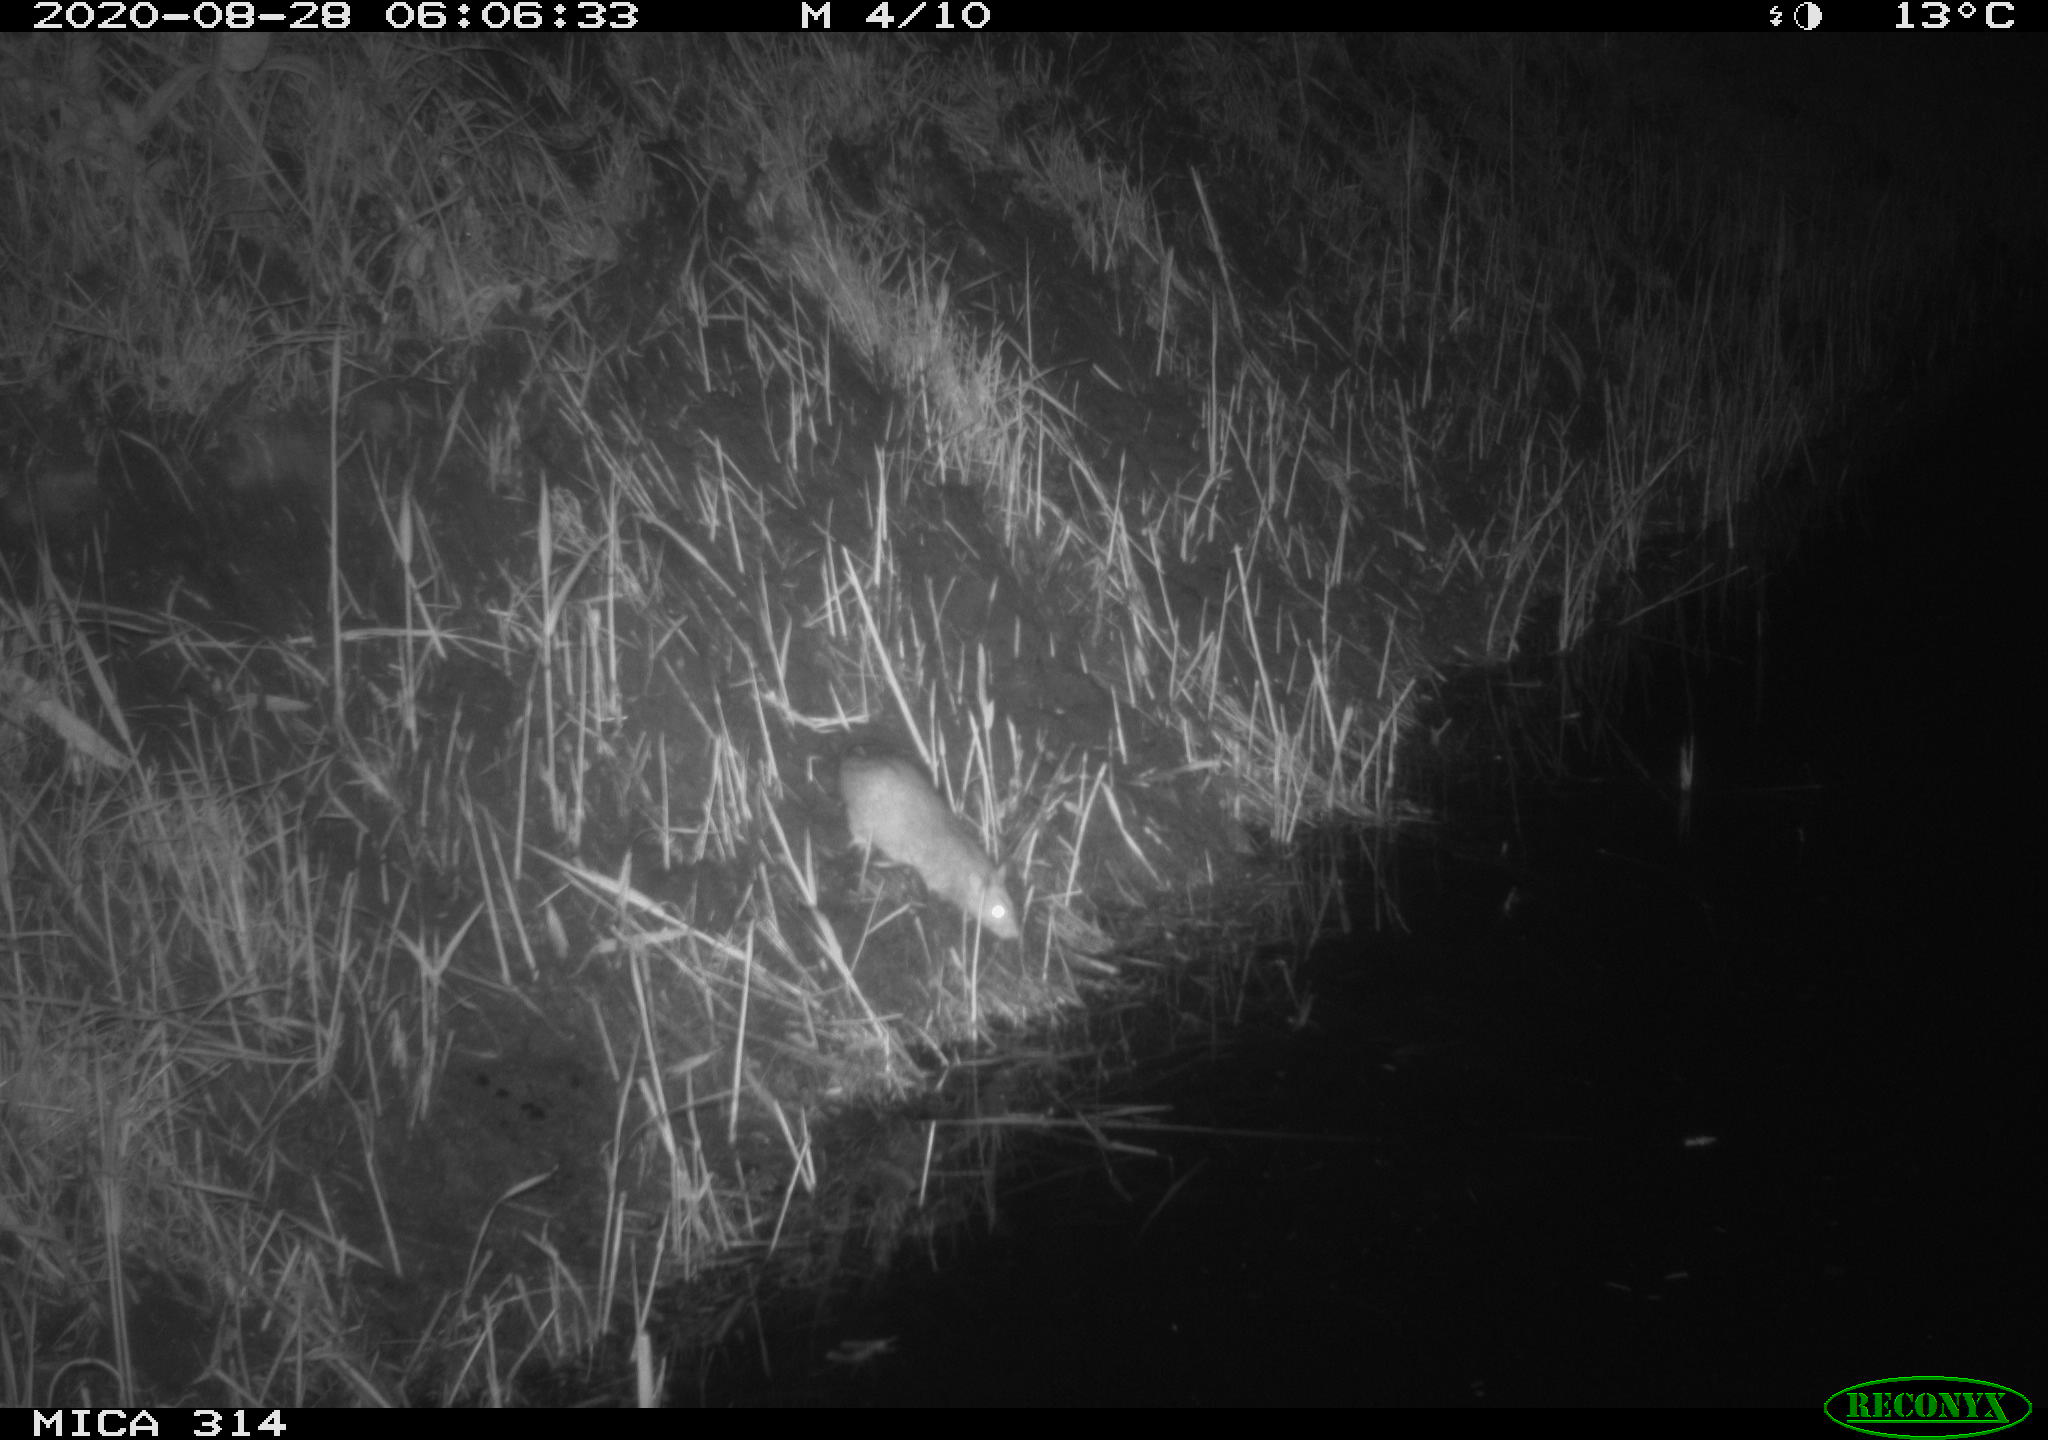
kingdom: Animalia
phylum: Chordata
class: Mammalia
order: Rodentia
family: Muridae
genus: Rattus
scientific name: Rattus norvegicus
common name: Brown rat
